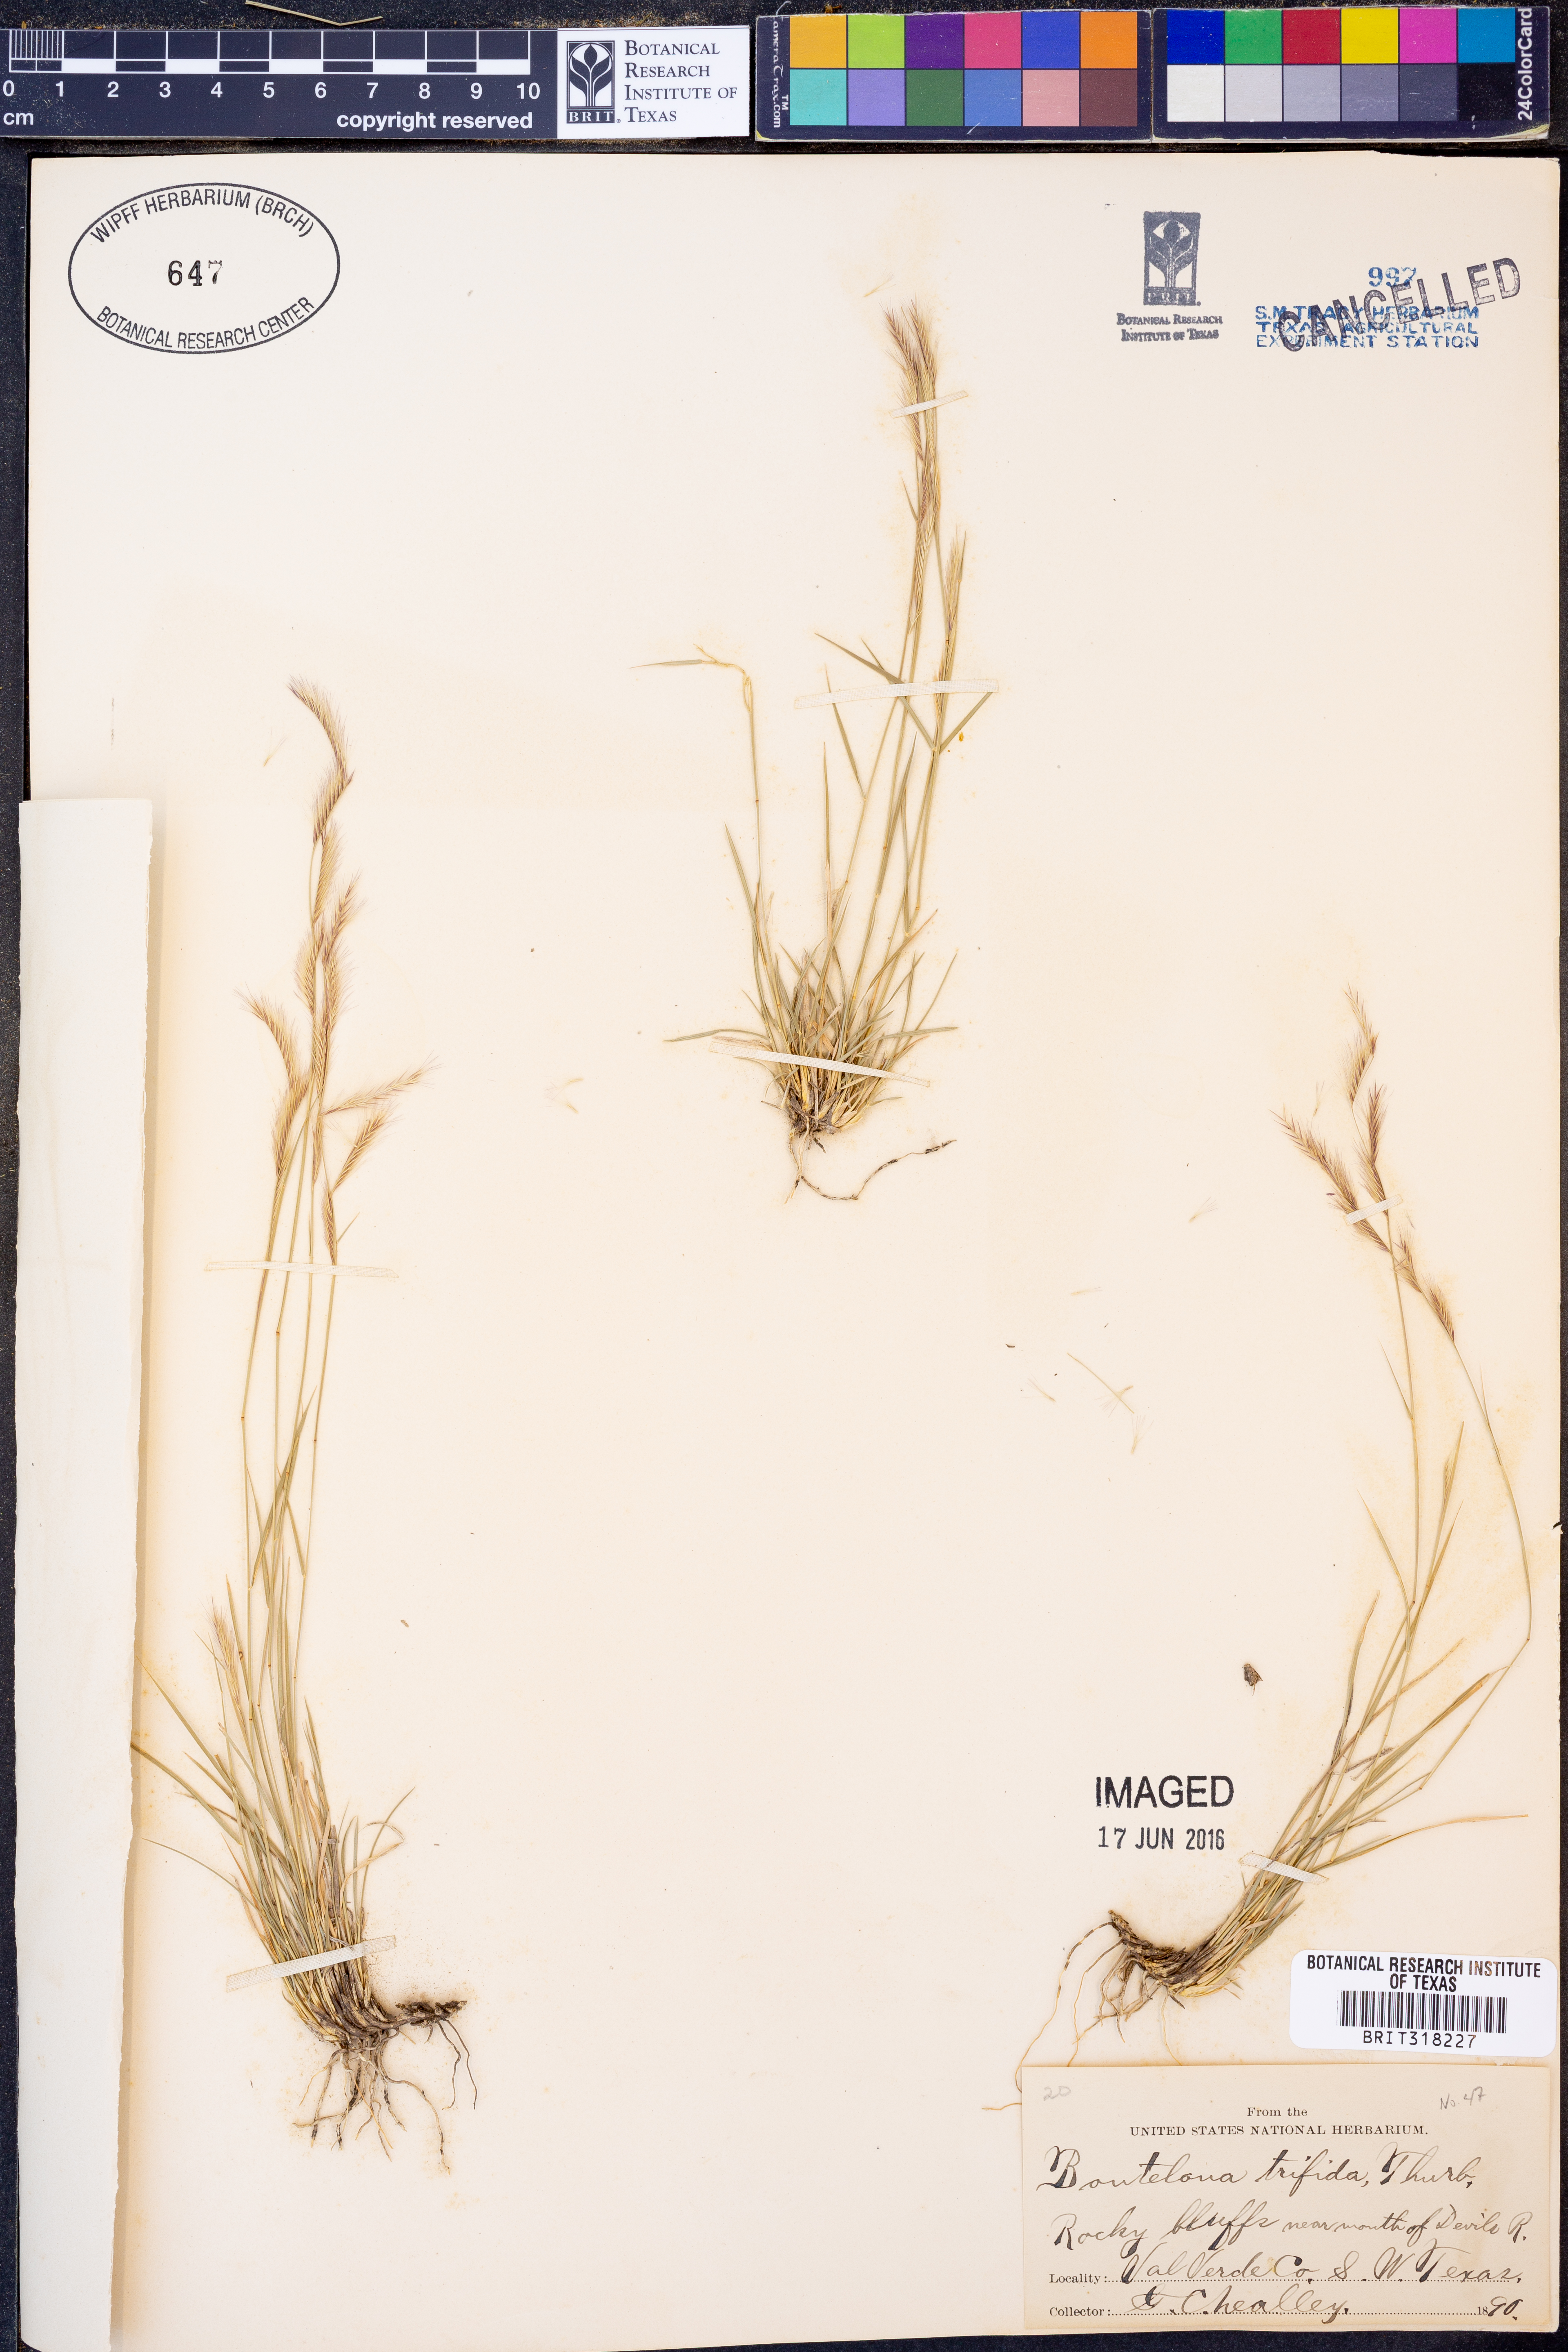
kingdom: Plantae
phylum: Tracheophyta
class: Liliopsida
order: Poales
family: Poaceae
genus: Bouteloua
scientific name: Bouteloua trifida
